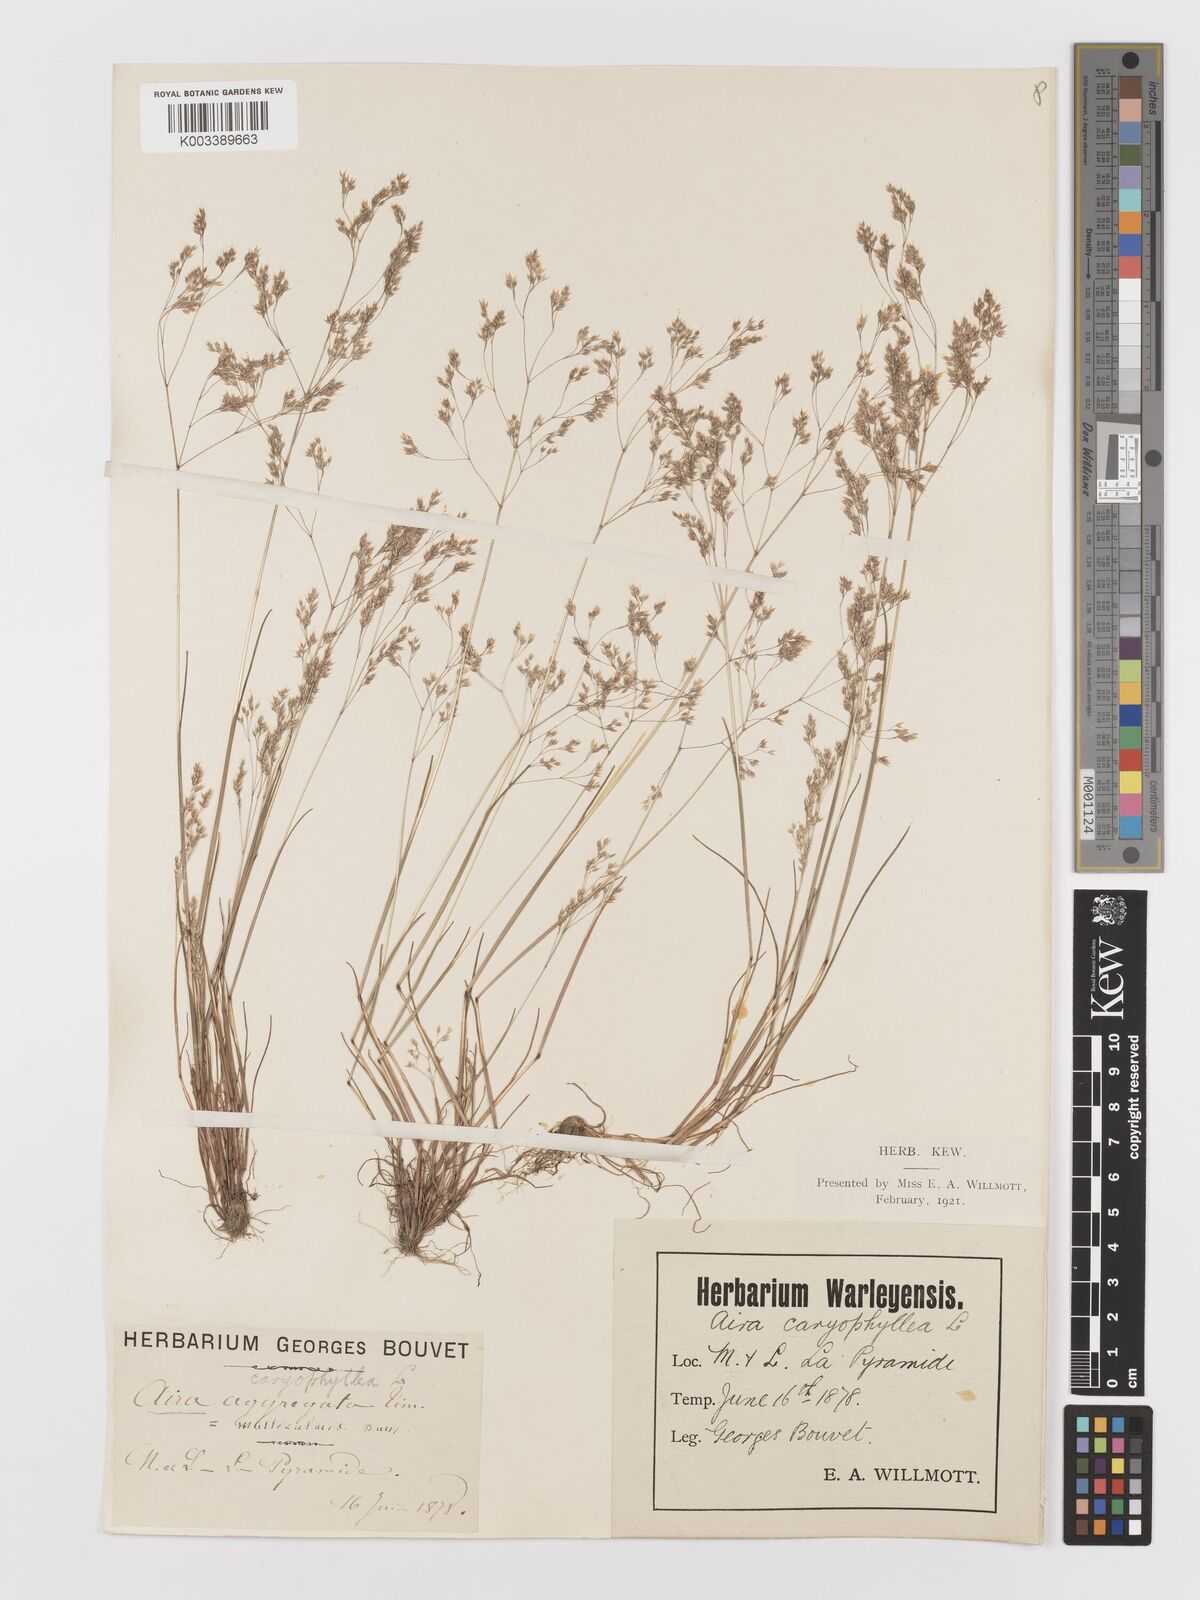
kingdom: Plantae
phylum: Tracheophyta
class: Liliopsida
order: Poales
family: Poaceae
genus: Aira
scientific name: Aira caryophyllea
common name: Silver hairgrass
